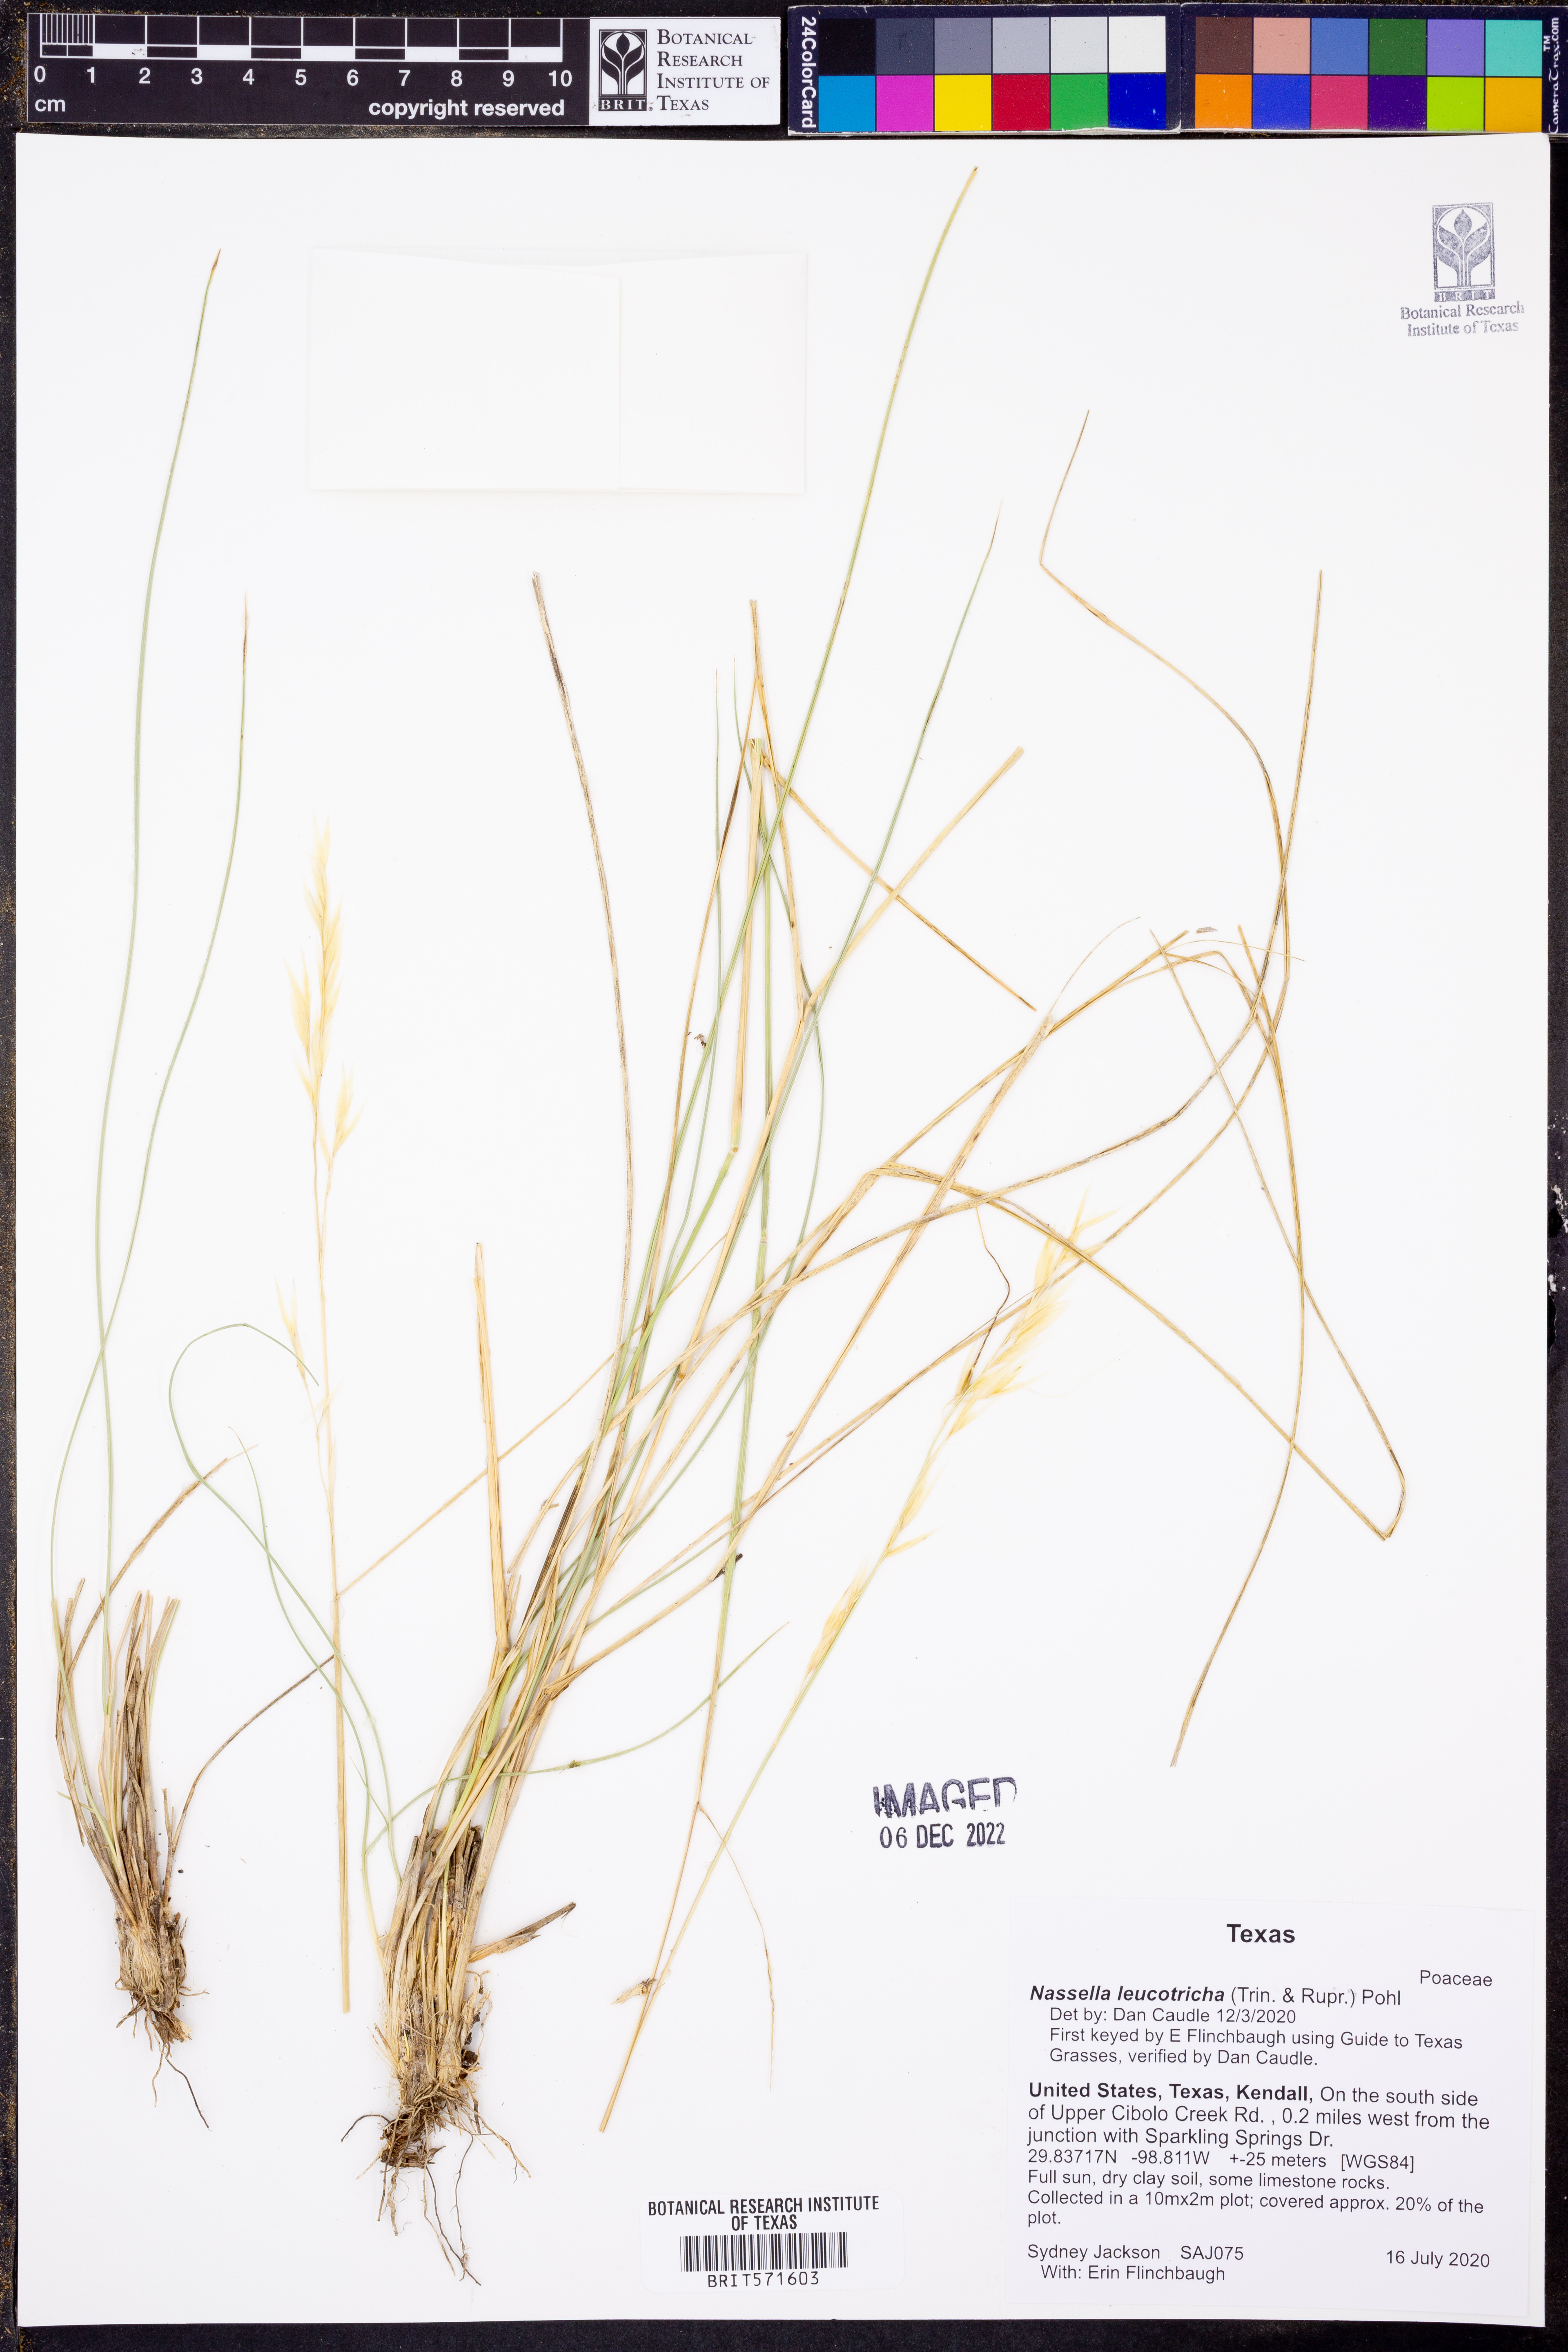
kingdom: Plantae
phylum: Tracheophyta
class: Liliopsida
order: Poales
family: Poaceae
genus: Nassella
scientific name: Nassella leucotricha
